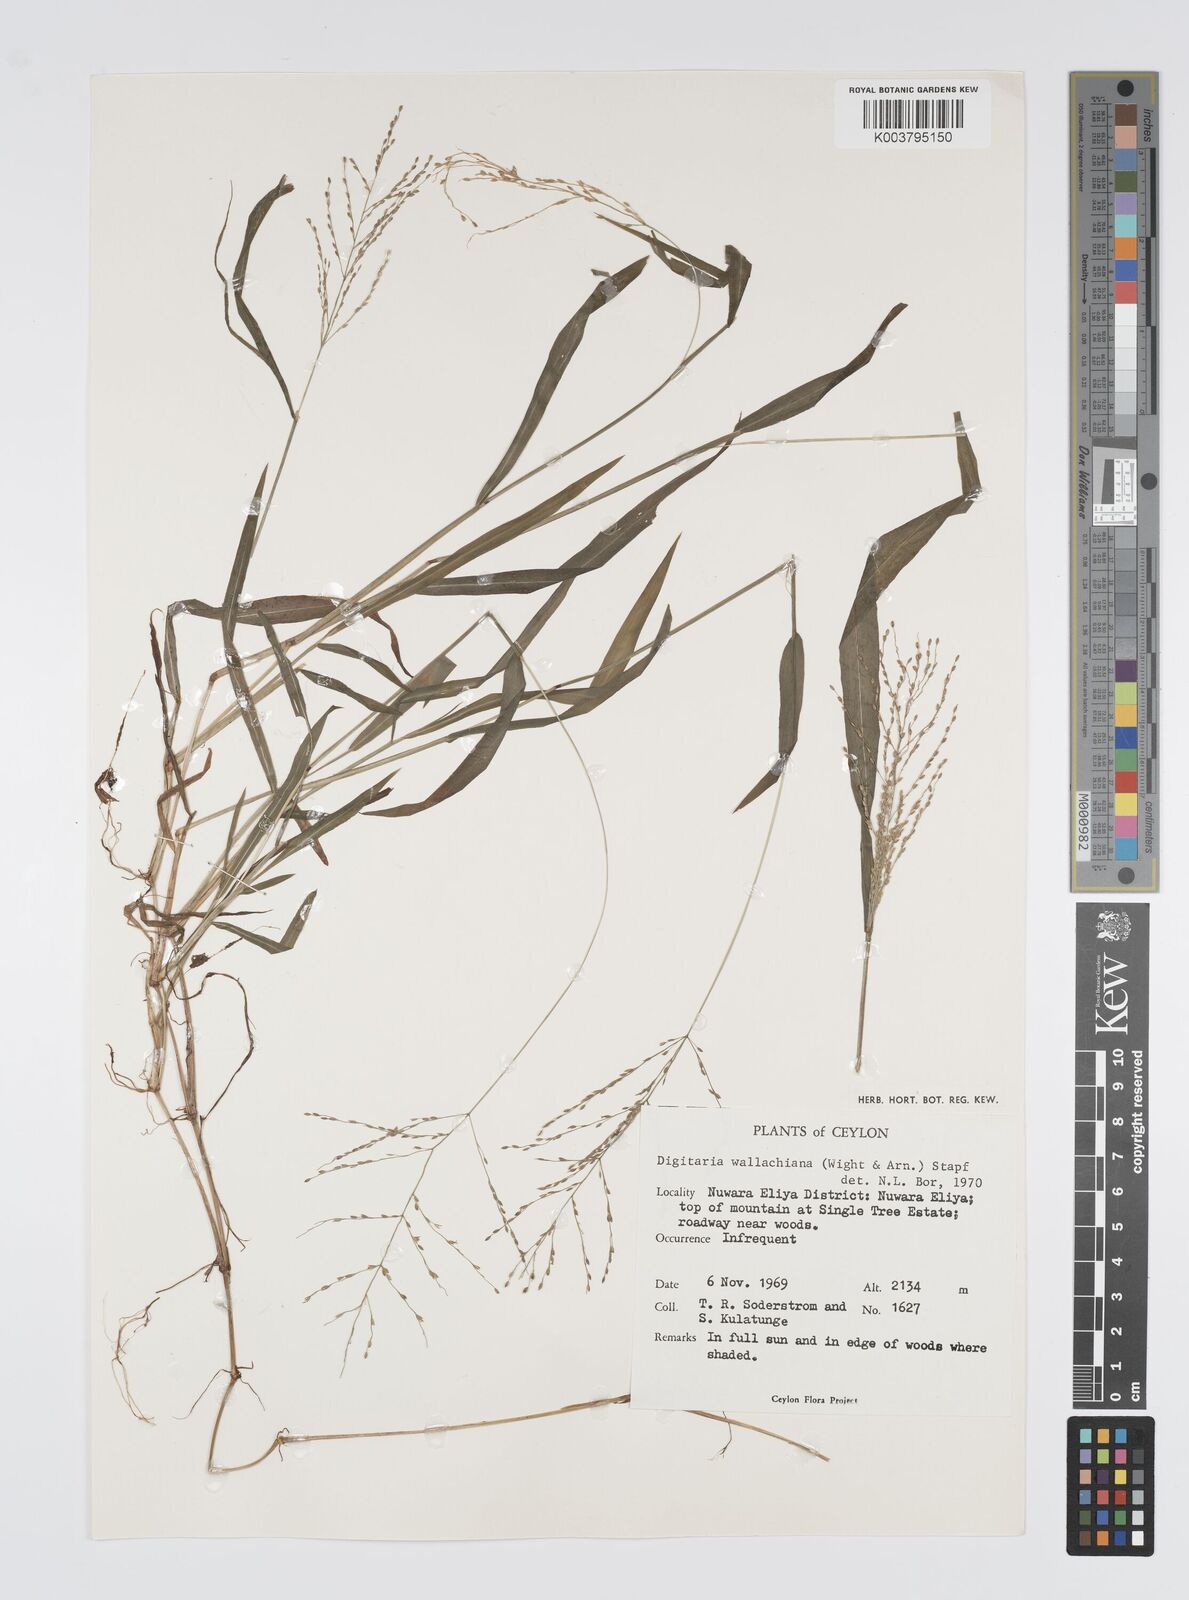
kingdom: Plantae
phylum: Tracheophyta
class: Liliopsida
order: Poales
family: Poaceae
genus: Digitaria
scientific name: Digitaria wallichiana
